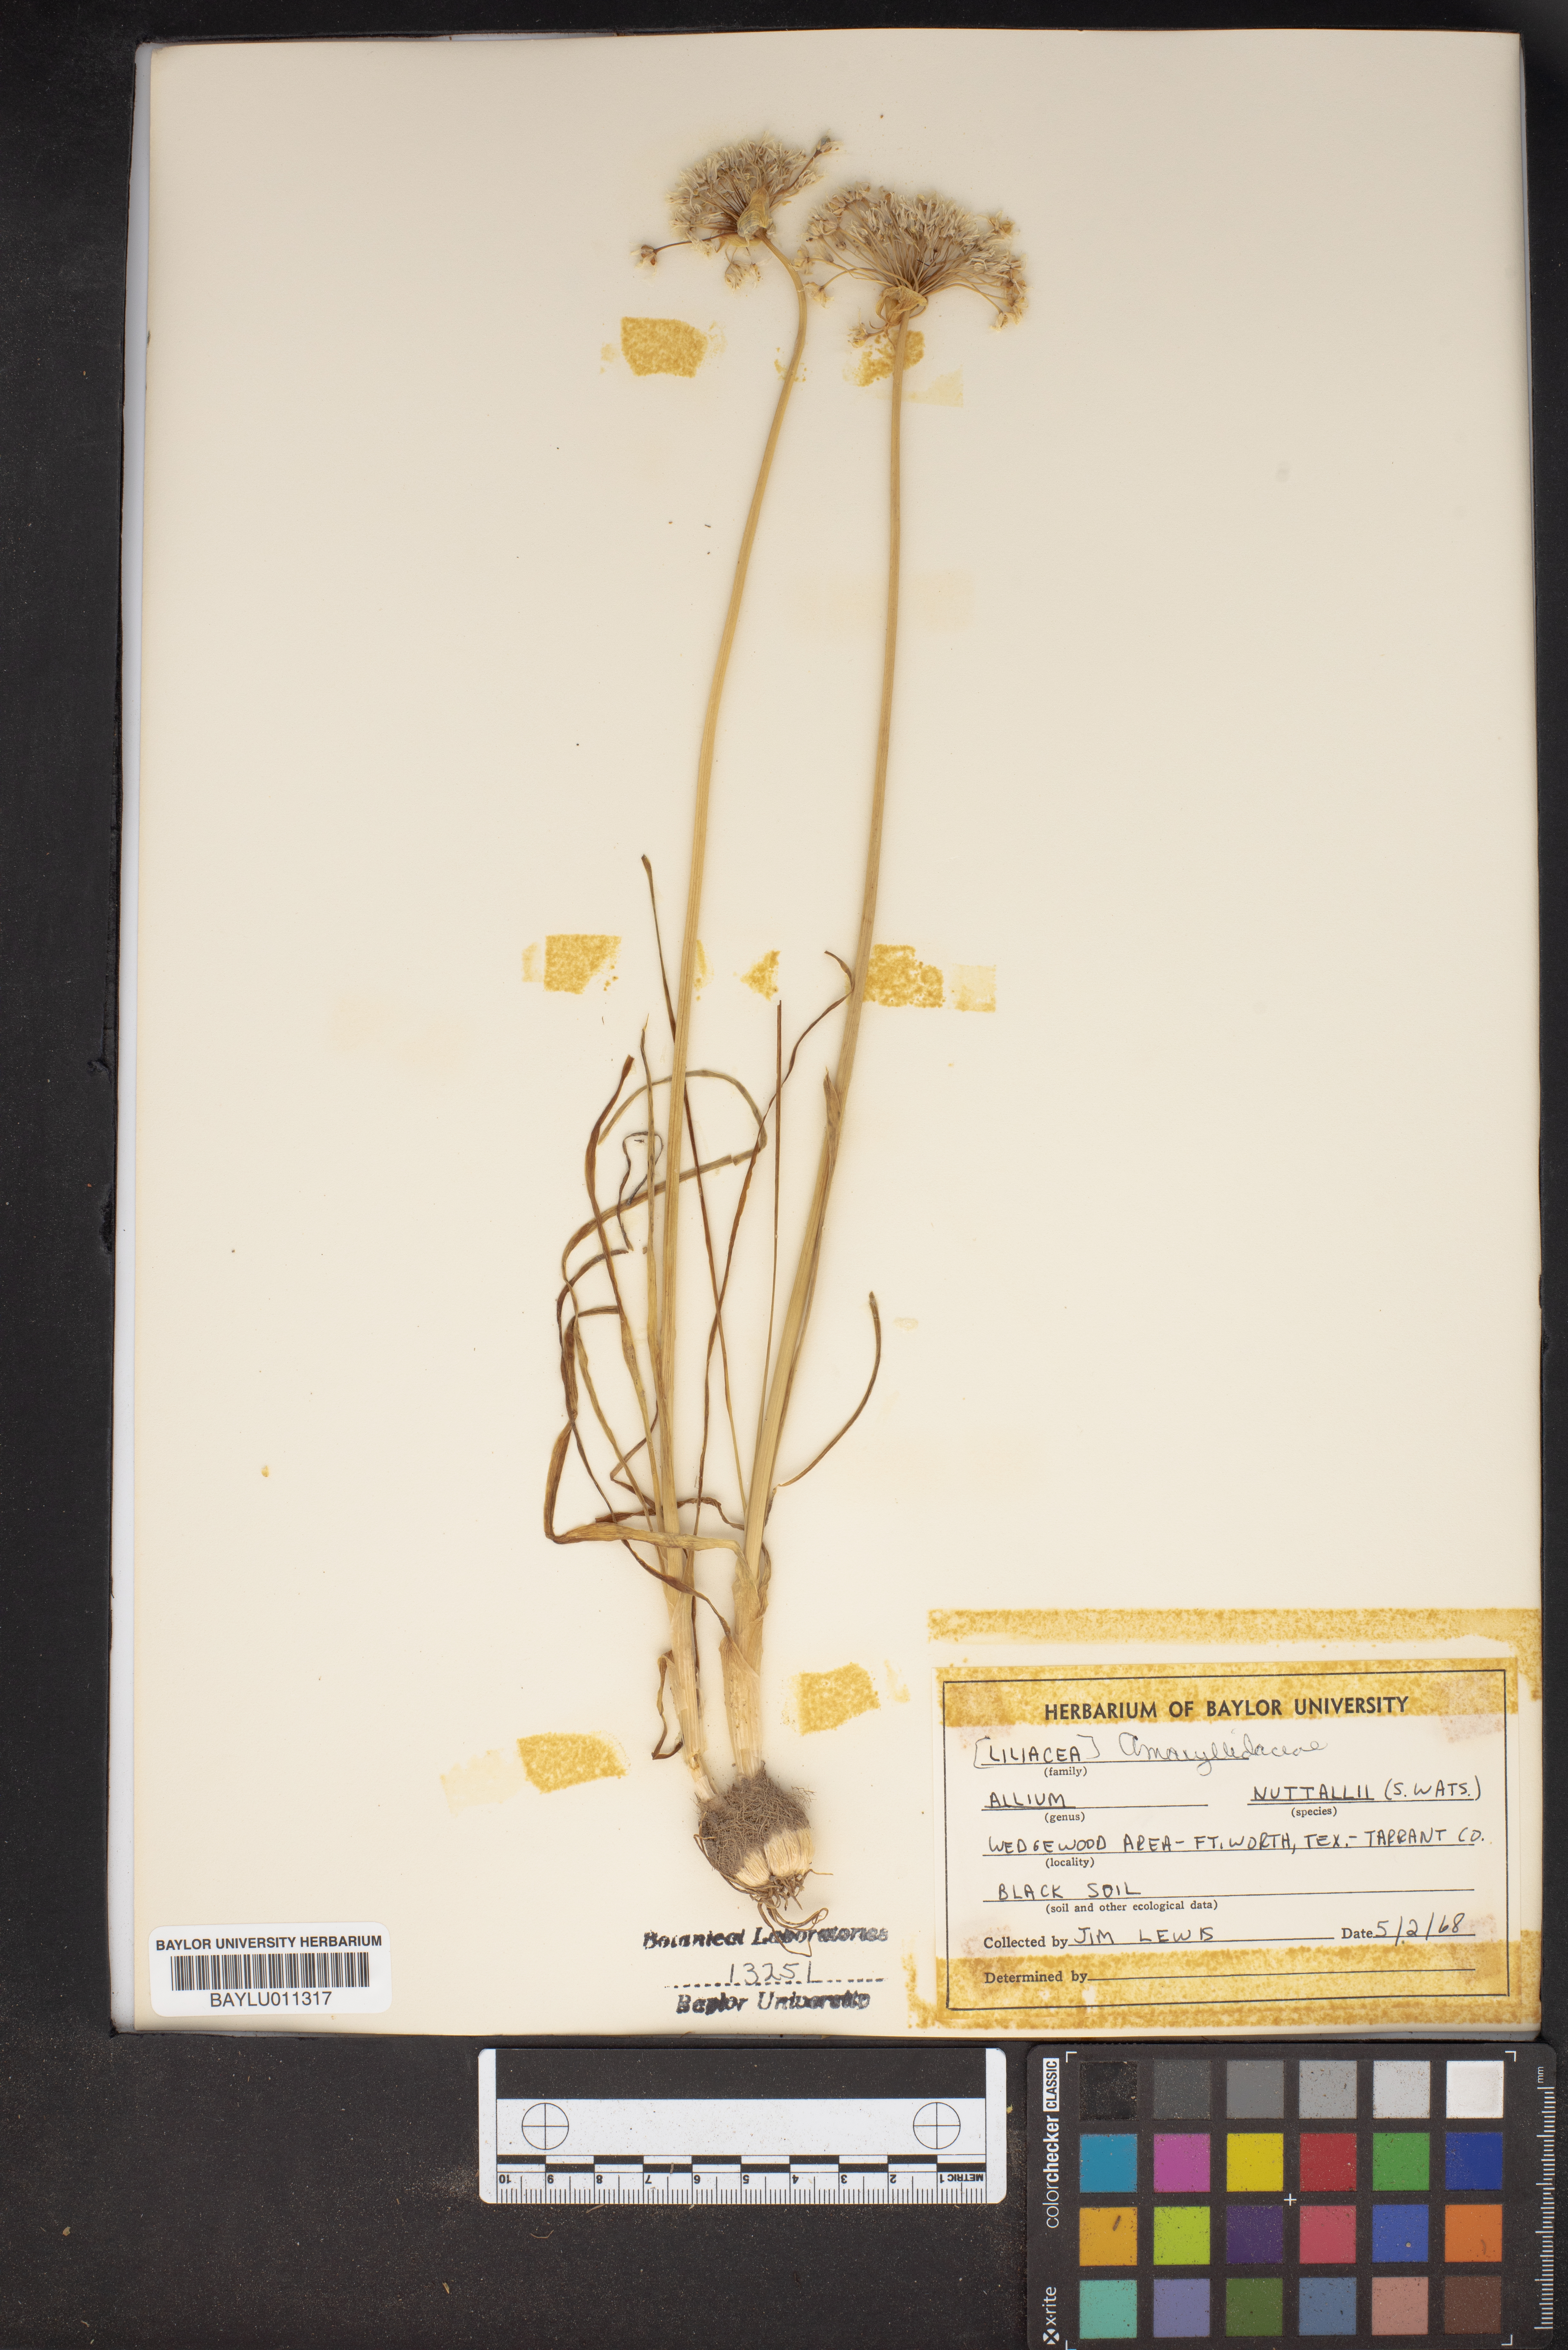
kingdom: Plantae
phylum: Tracheophyta
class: Liliopsida
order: Asparagales
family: Amaryllidaceae
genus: Allium
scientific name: Allium drummondii
